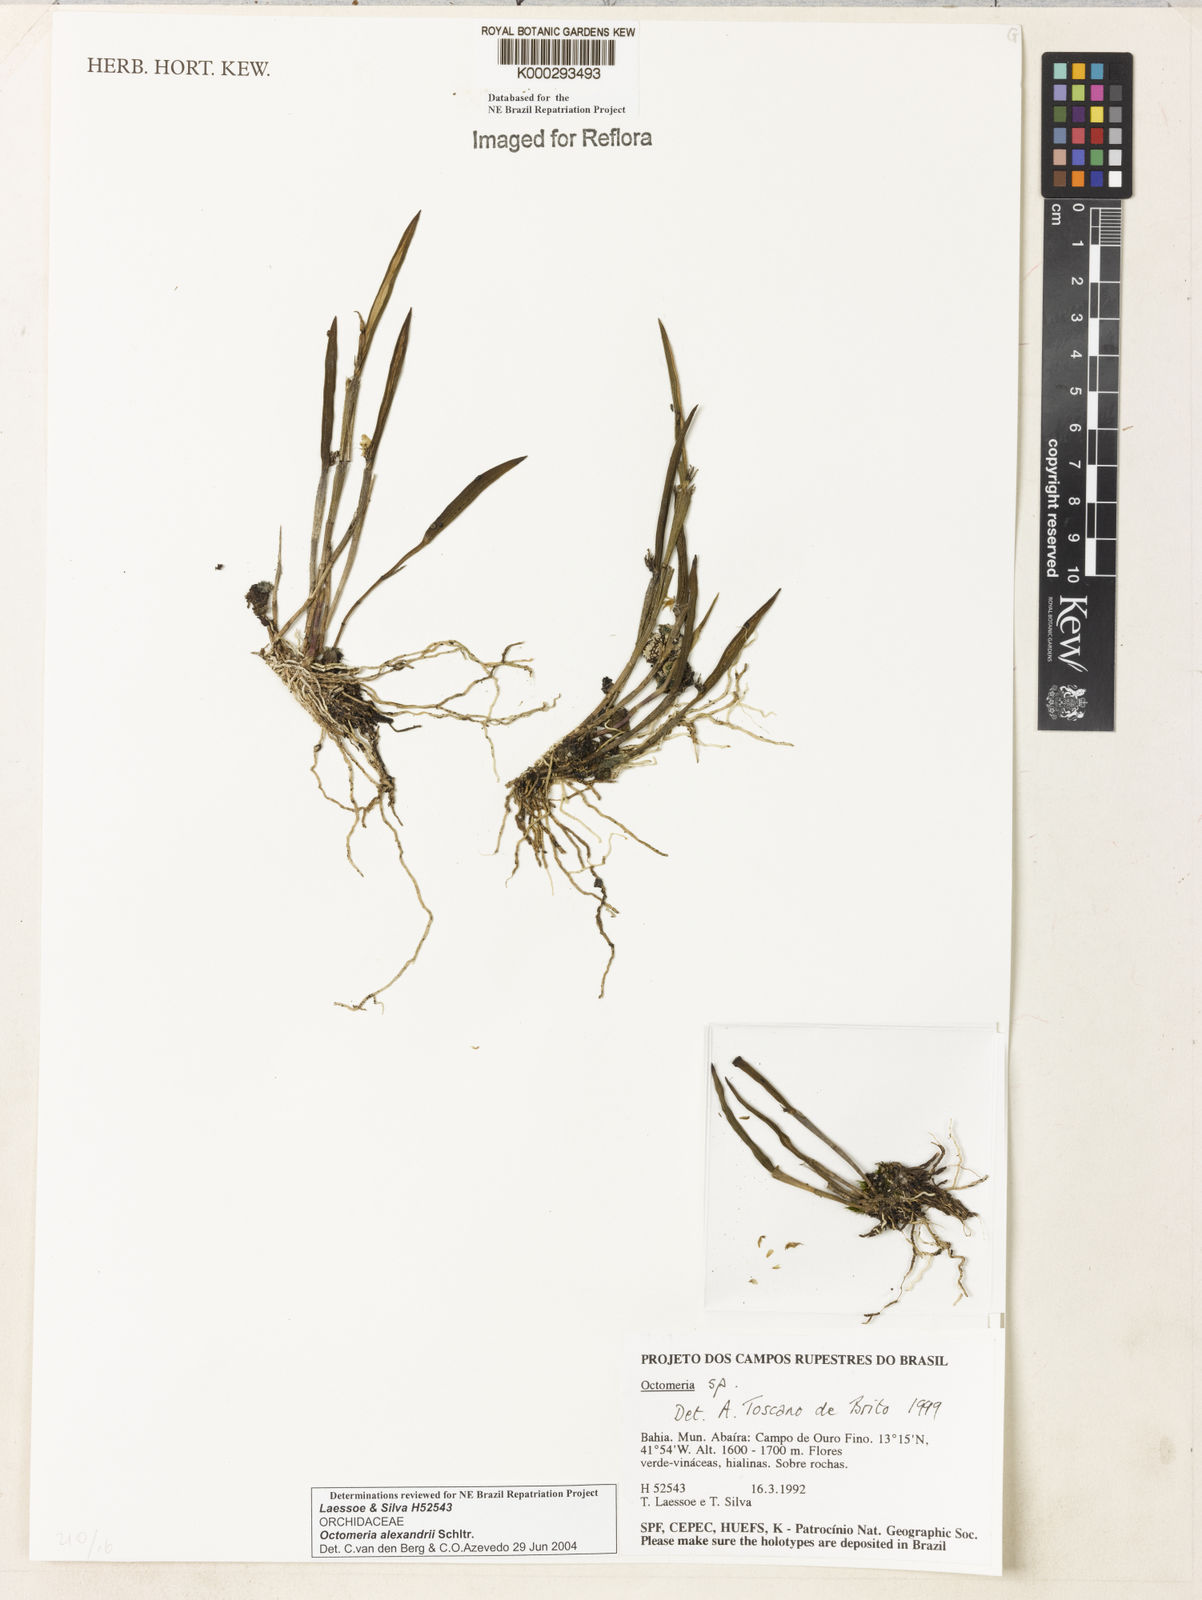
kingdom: Plantae
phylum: Tracheophyta
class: Liliopsida
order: Asparagales
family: Orchidaceae
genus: Octomeria
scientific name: Octomeria alexandri
